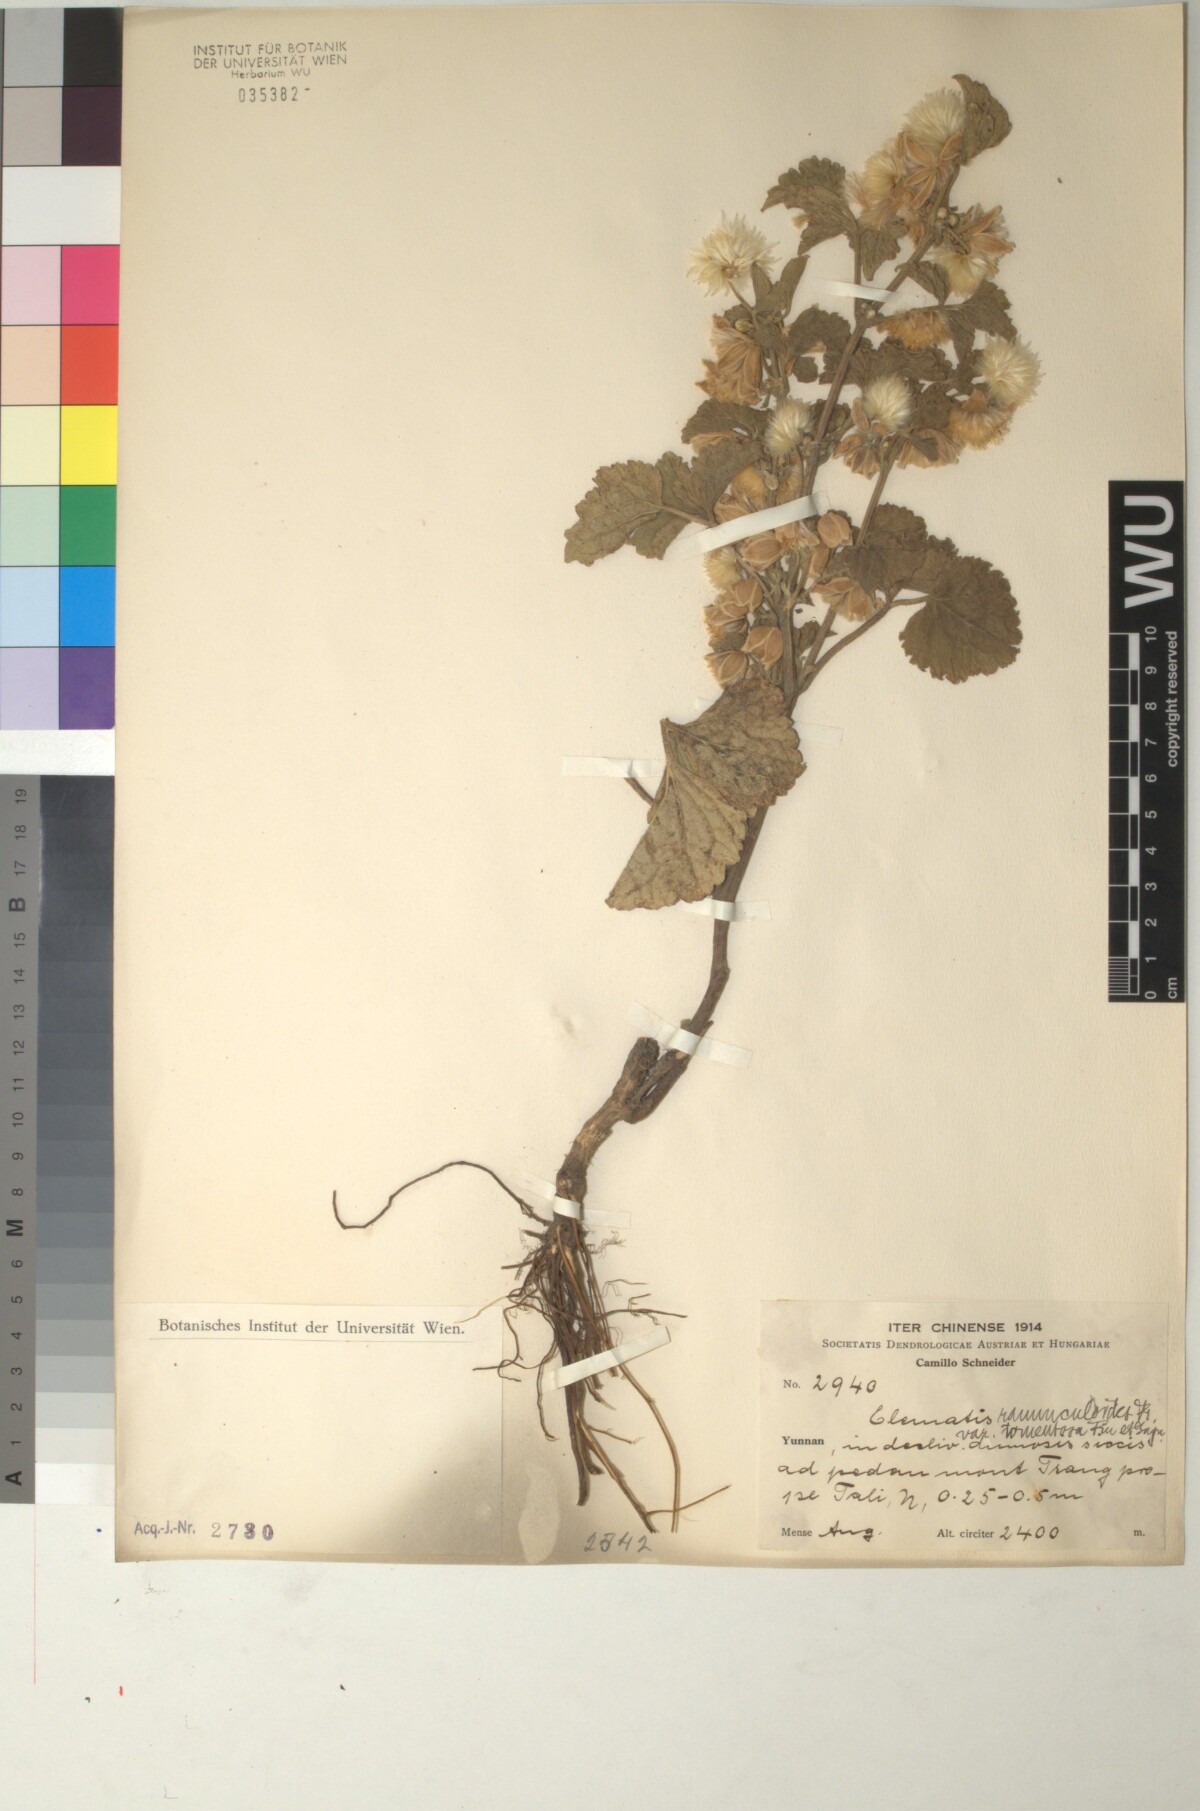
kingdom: Plantae
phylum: Tracheophyta
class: Magnoliopsida
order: Ranunculales
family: Ranunculaceae
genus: Clematis
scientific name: Clematis pinchuanensis
